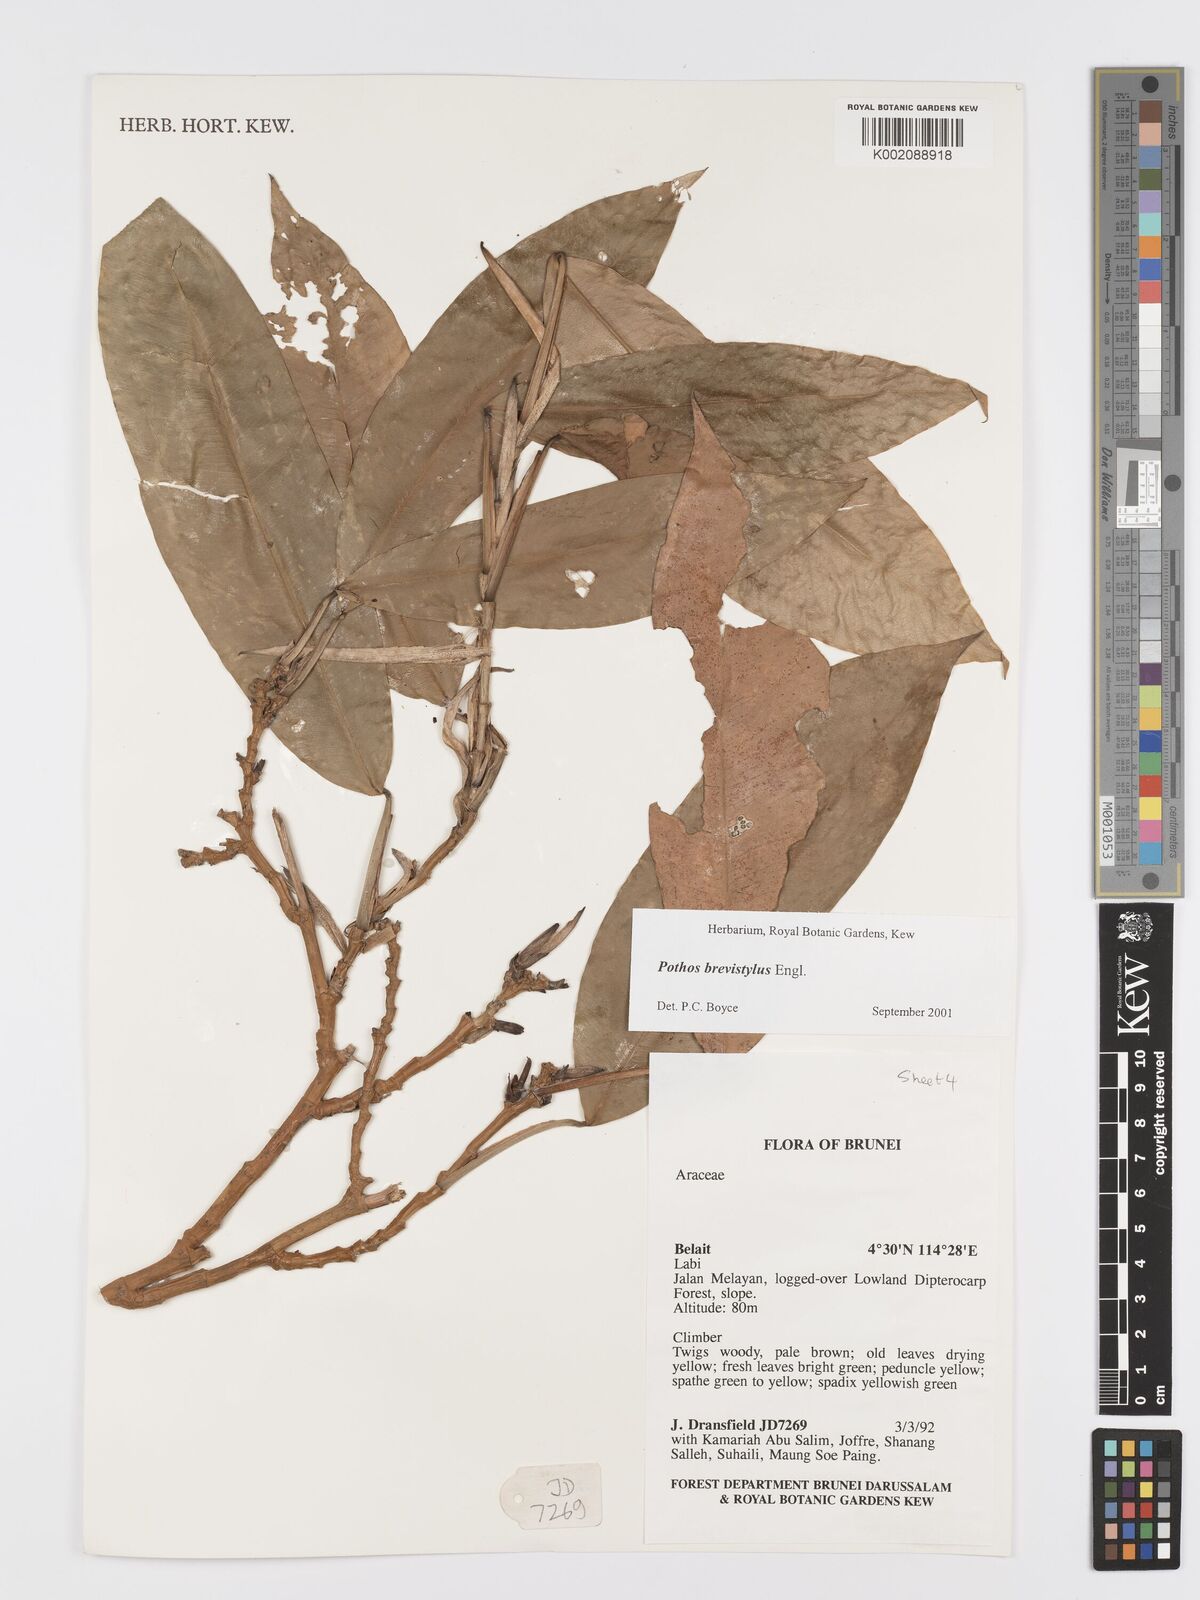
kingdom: Plantae
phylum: Tracheophyta
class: Liliopsida
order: Alismatales
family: Araceae
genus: Pothos
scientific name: Pothos brevistylus
